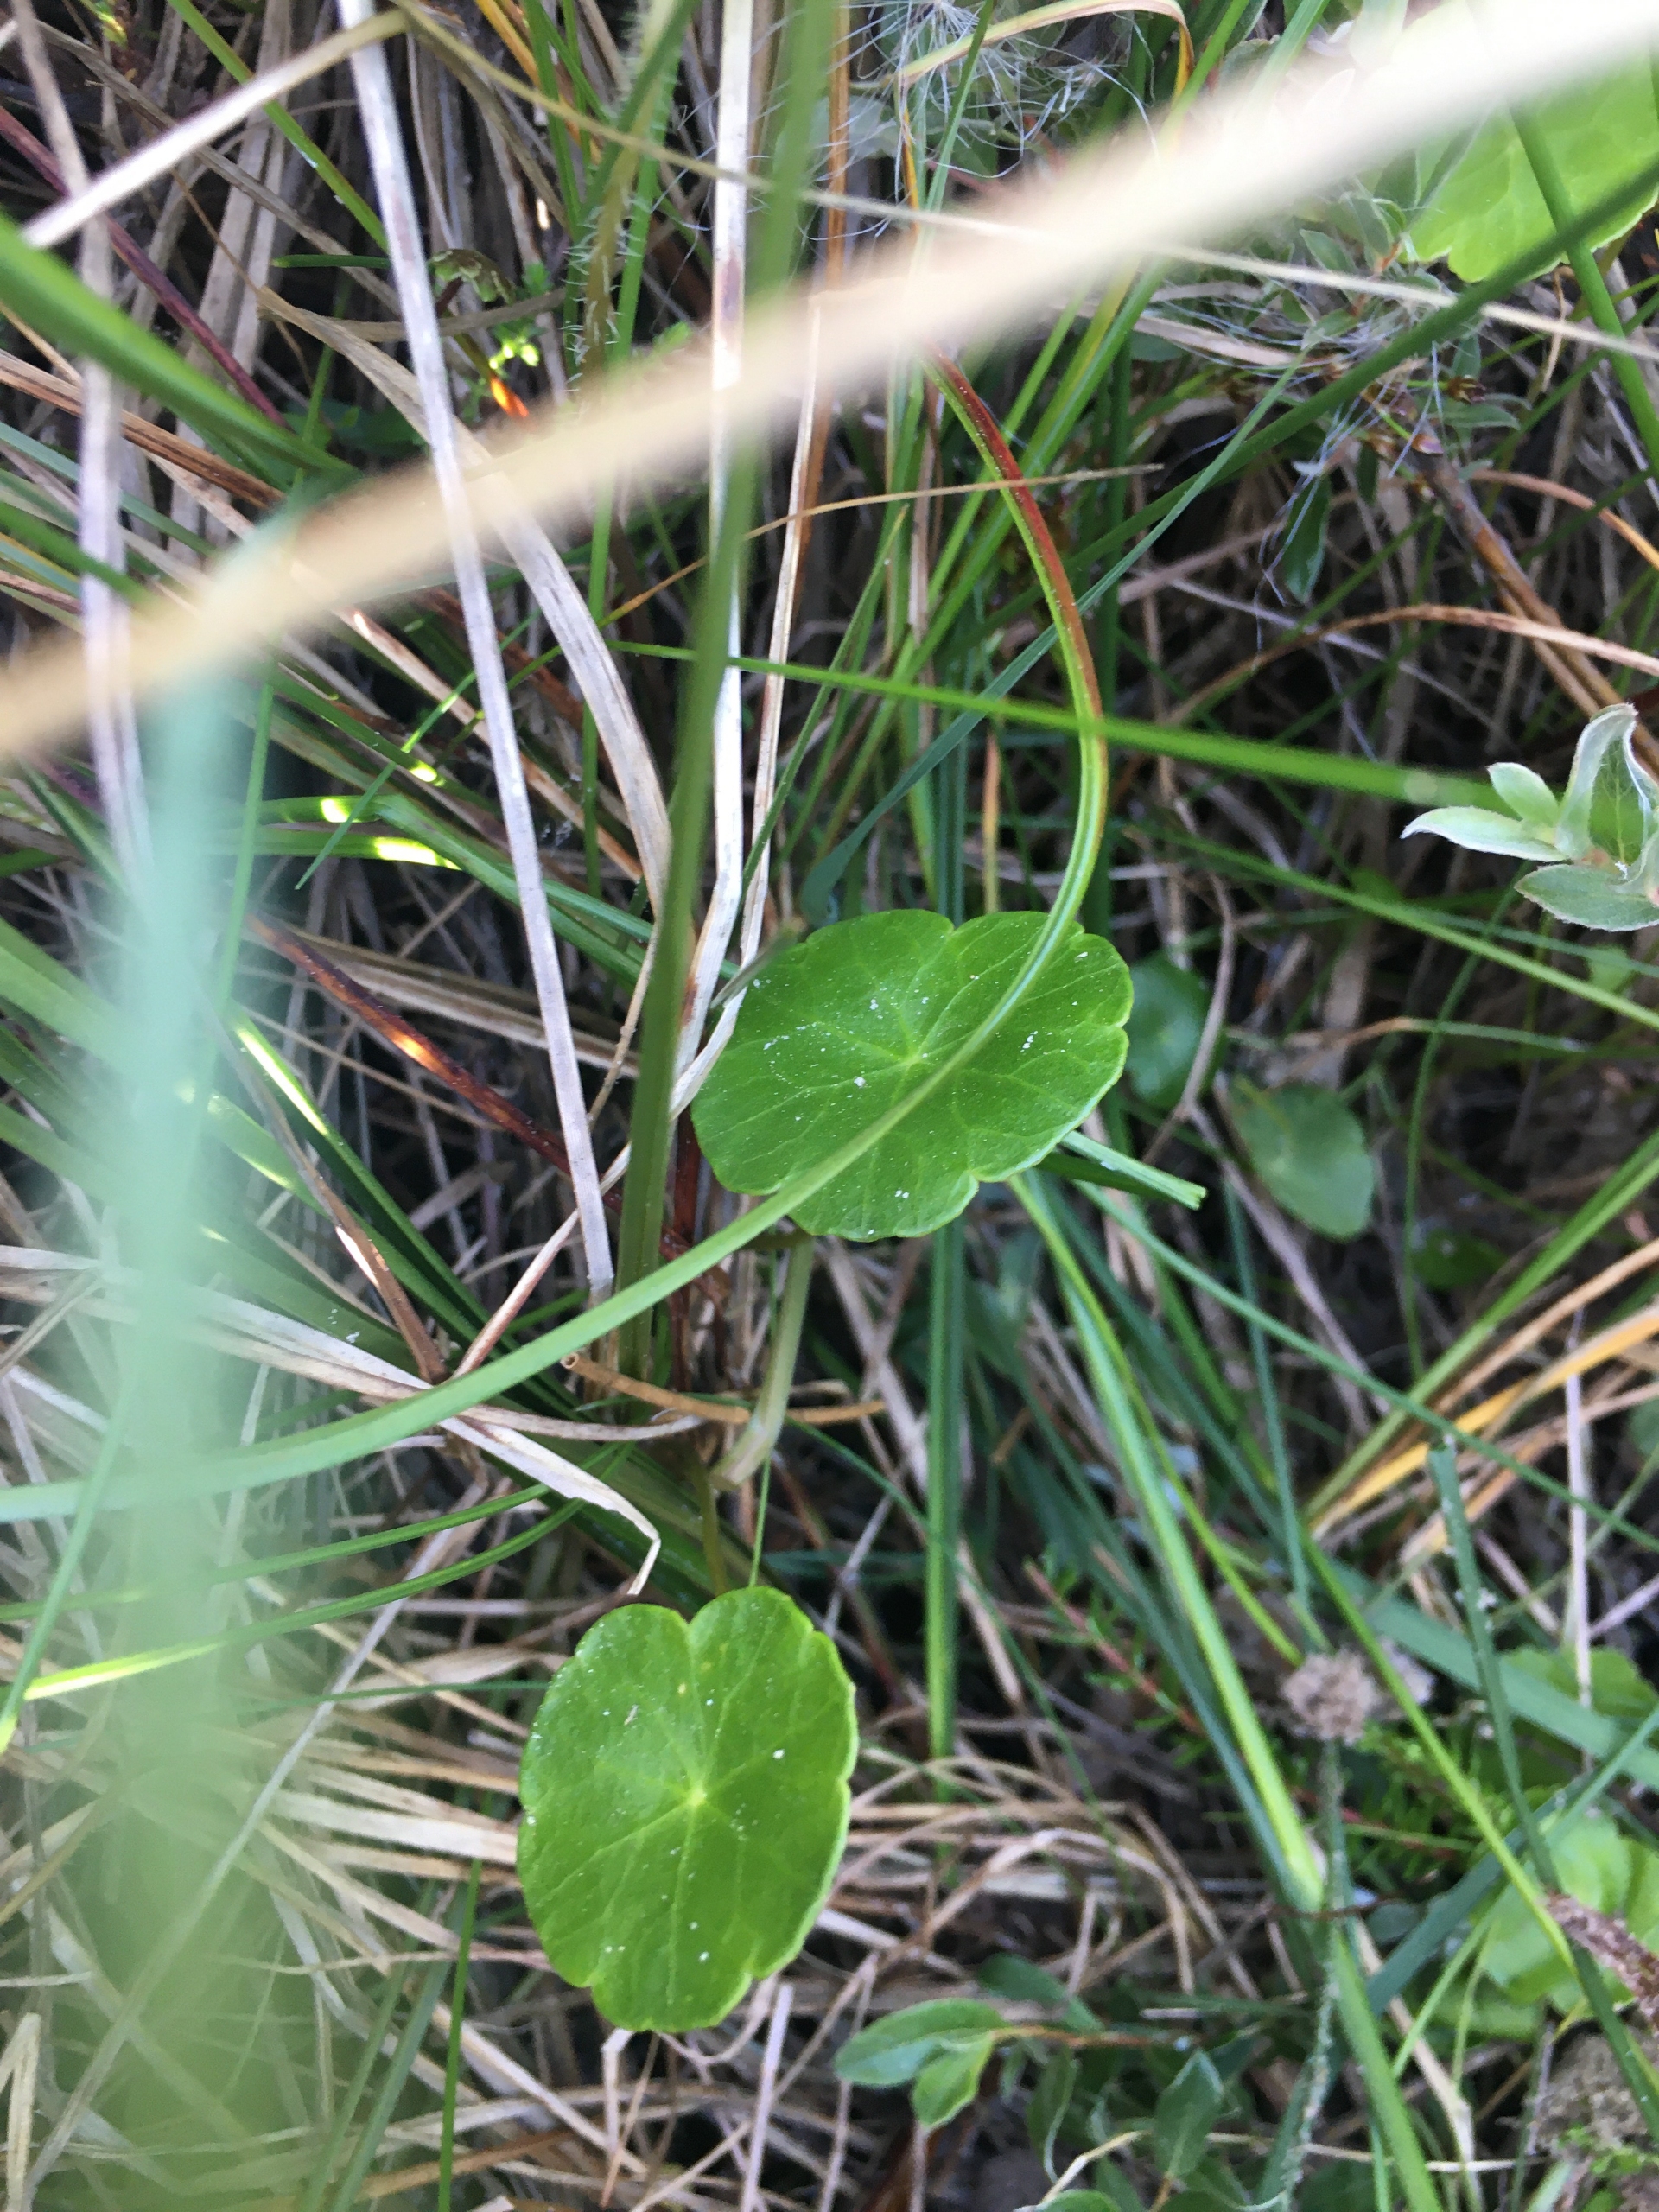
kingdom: Plantae
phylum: Tracheophyta
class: Magnoliopsida
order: Apiales
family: Araliaceae
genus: Hydrocotyle
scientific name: Hydrocotyle vulgaris
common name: Vandnavle
